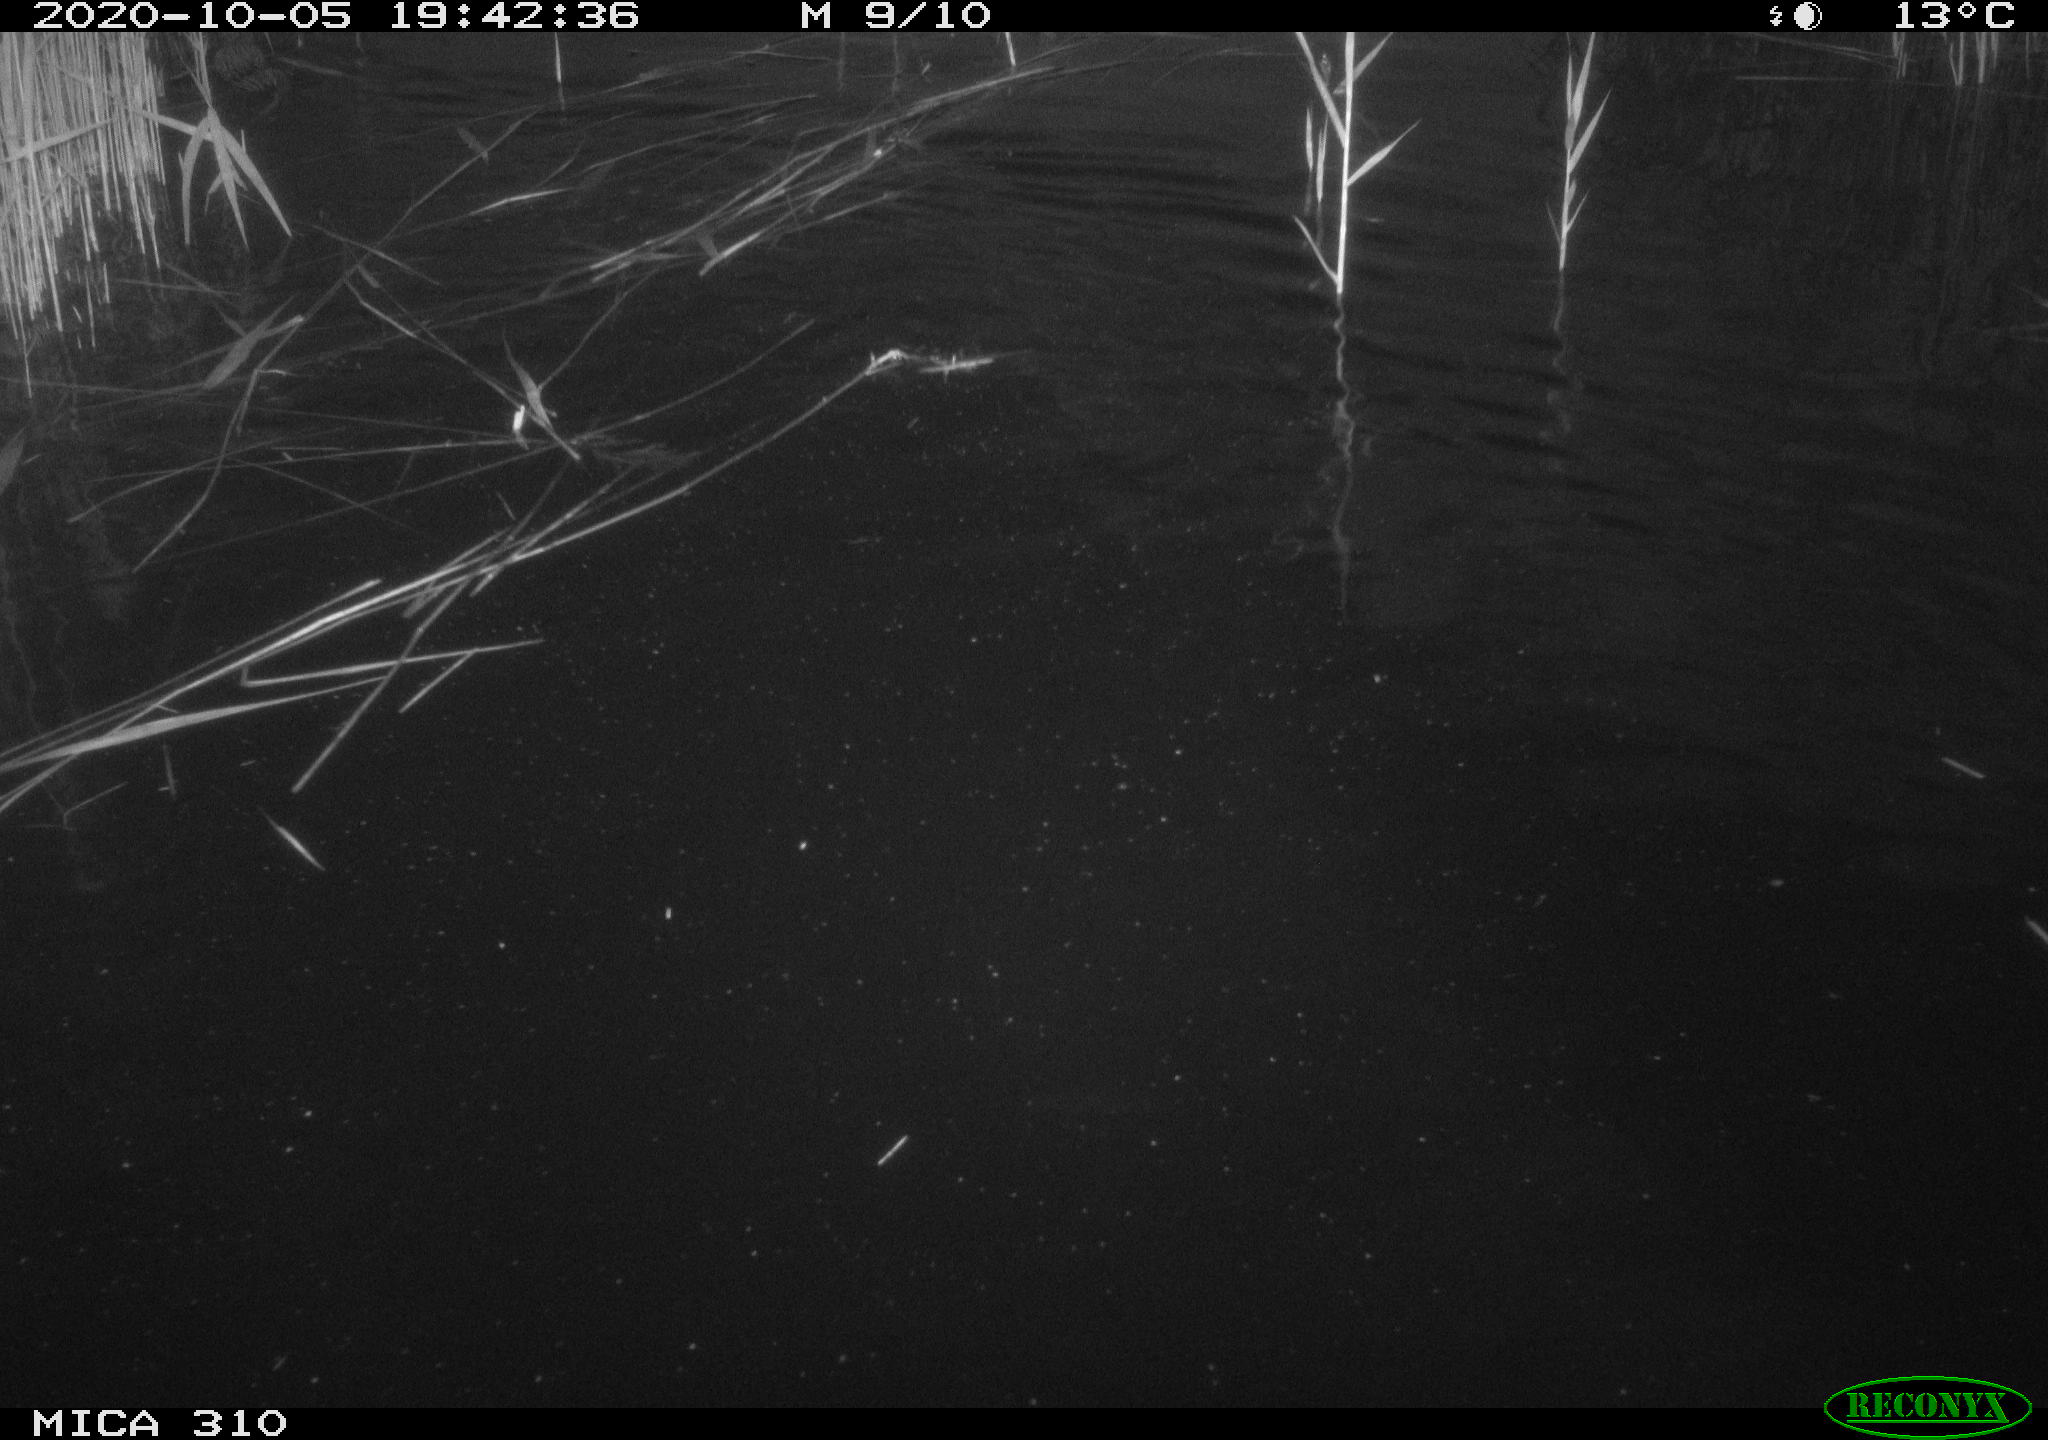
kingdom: Animalia
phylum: Chordata
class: Mammalia
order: Rodentia
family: Cricetidae
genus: Ondatra
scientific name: Ondatra zibethicus
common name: Muskrat
